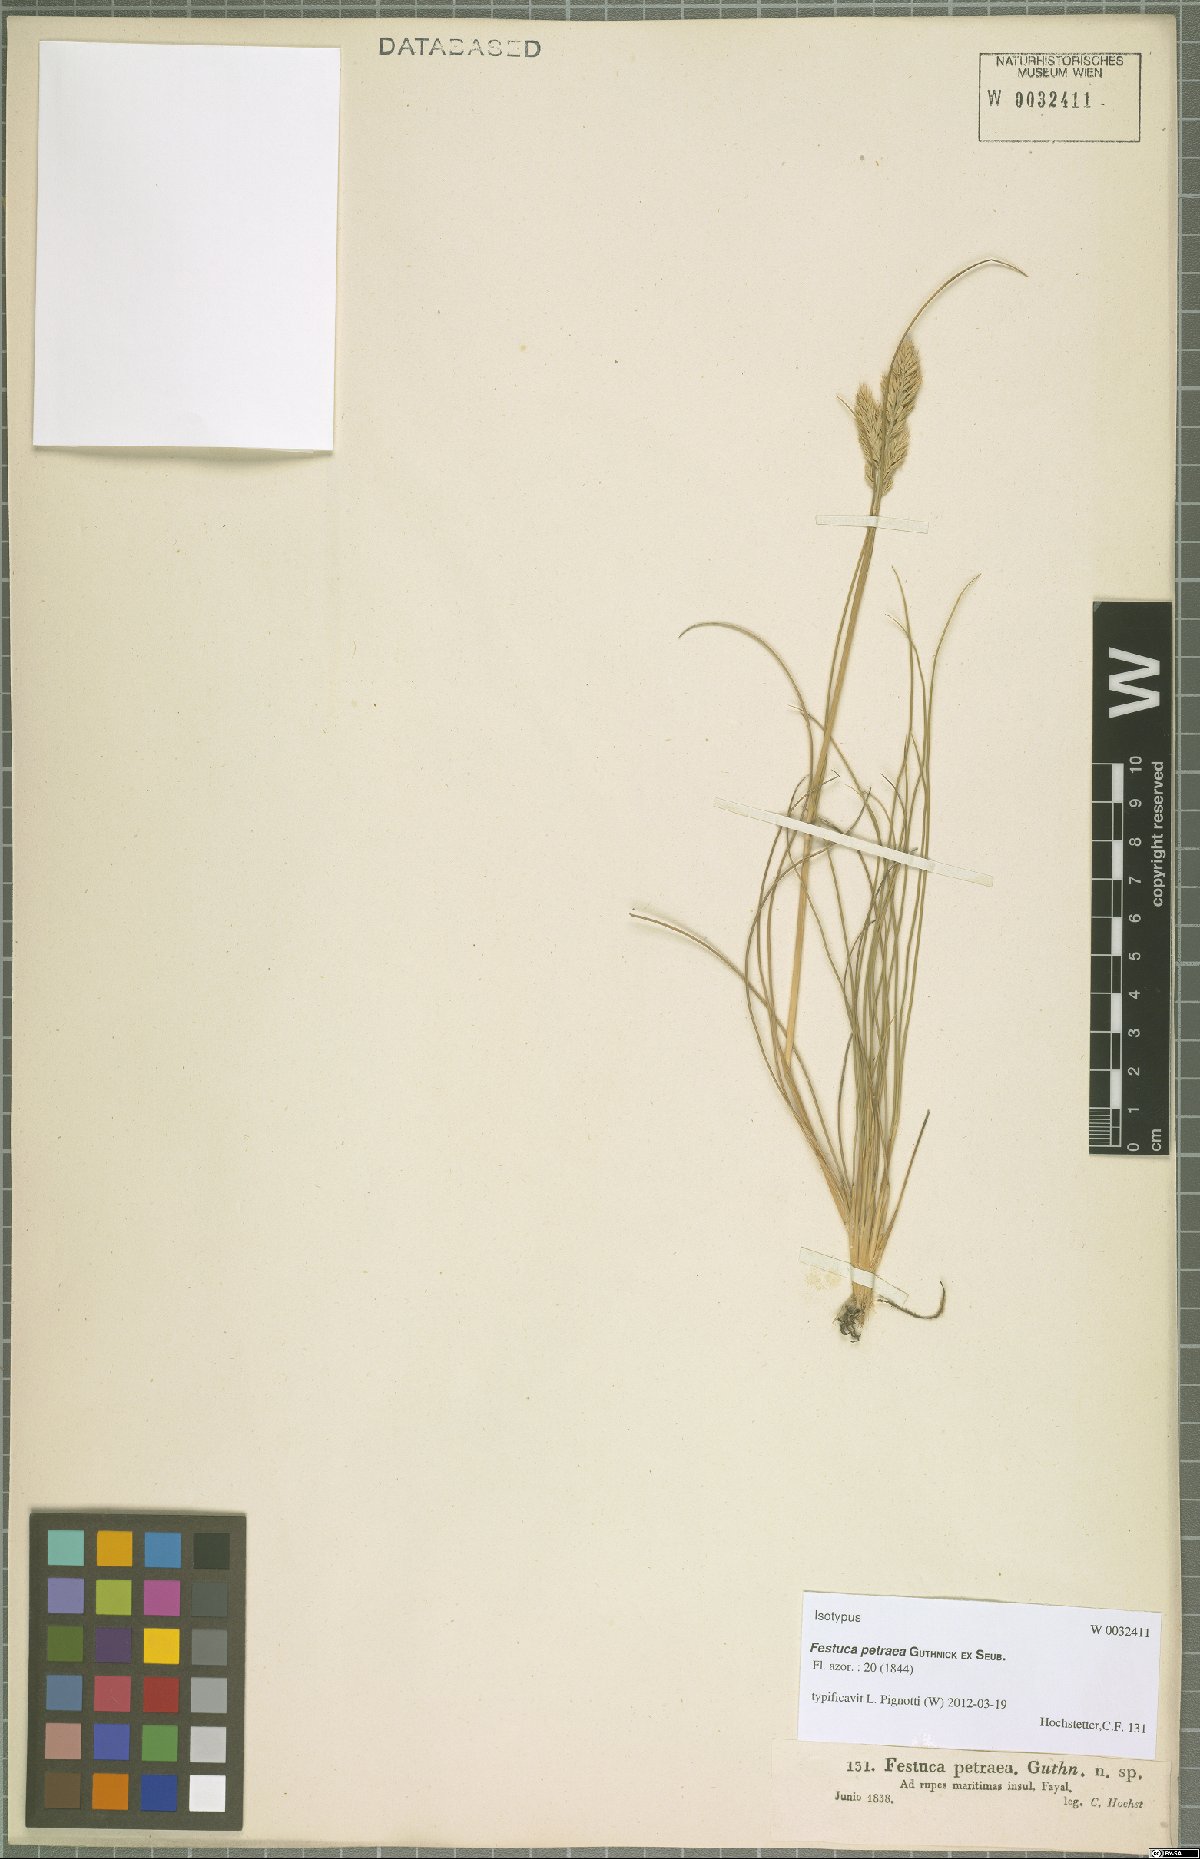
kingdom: Plantae
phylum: Tracheophyta
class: Liliopsida
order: Poales
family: Poaceae
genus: Festuca
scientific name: Festuca petraea
